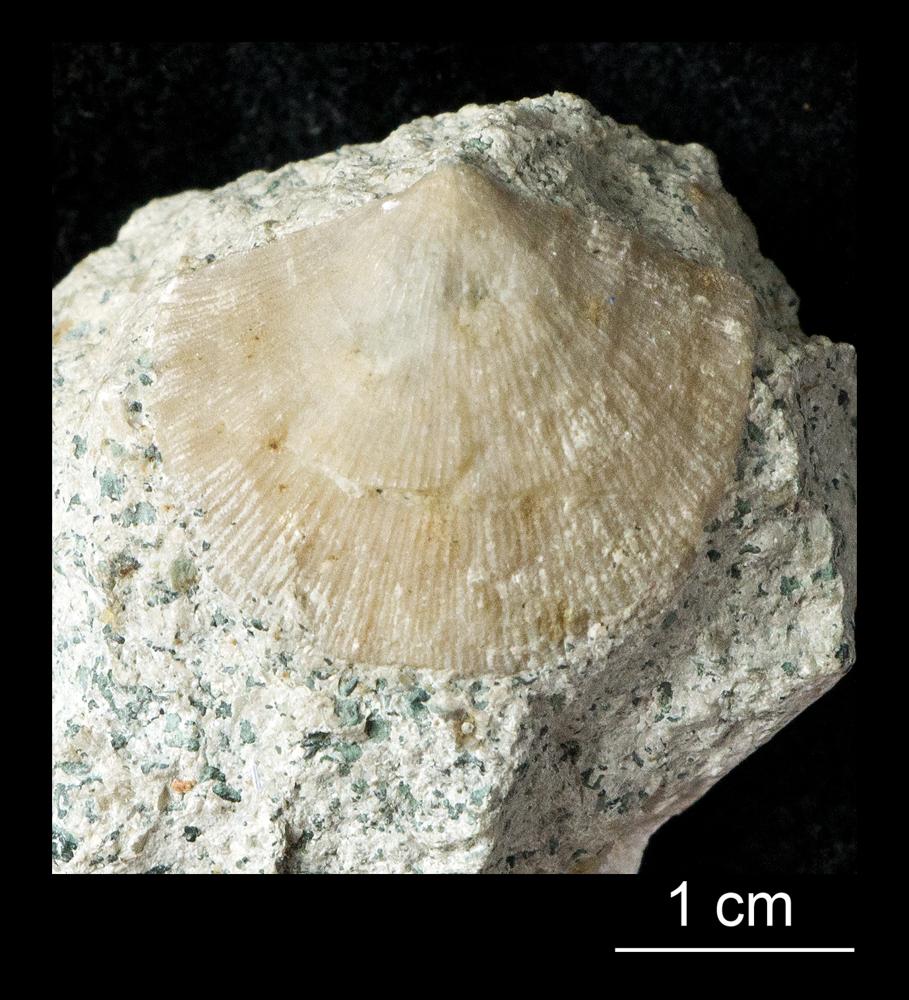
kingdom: Animalia
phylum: Brachiopoda
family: Gonambonitidae
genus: Gonambonites
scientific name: Gonambonites plana
